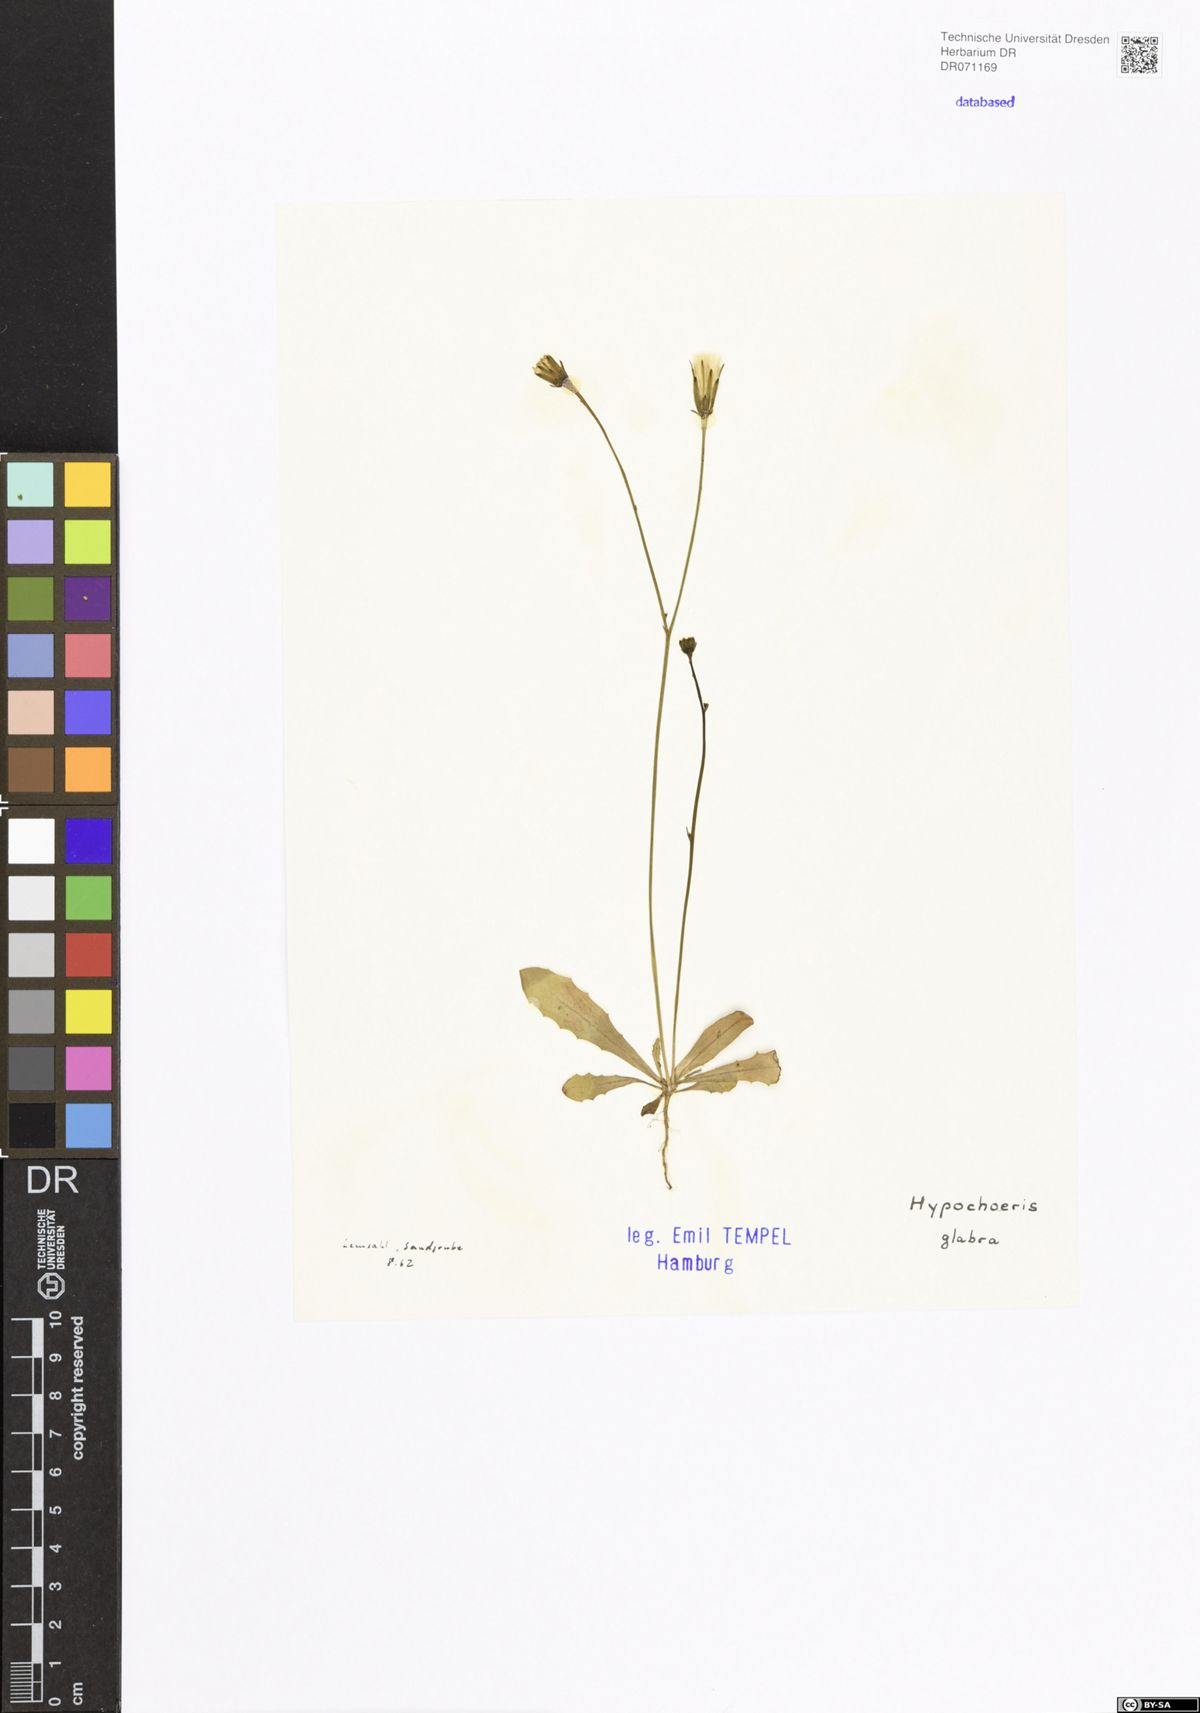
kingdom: Plantae
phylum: Tracheophyta
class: Magnoliopsida
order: Asterales
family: Asteraceae
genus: Hypochaeris
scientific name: Hypochaeris glabra
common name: Smooth catsear
